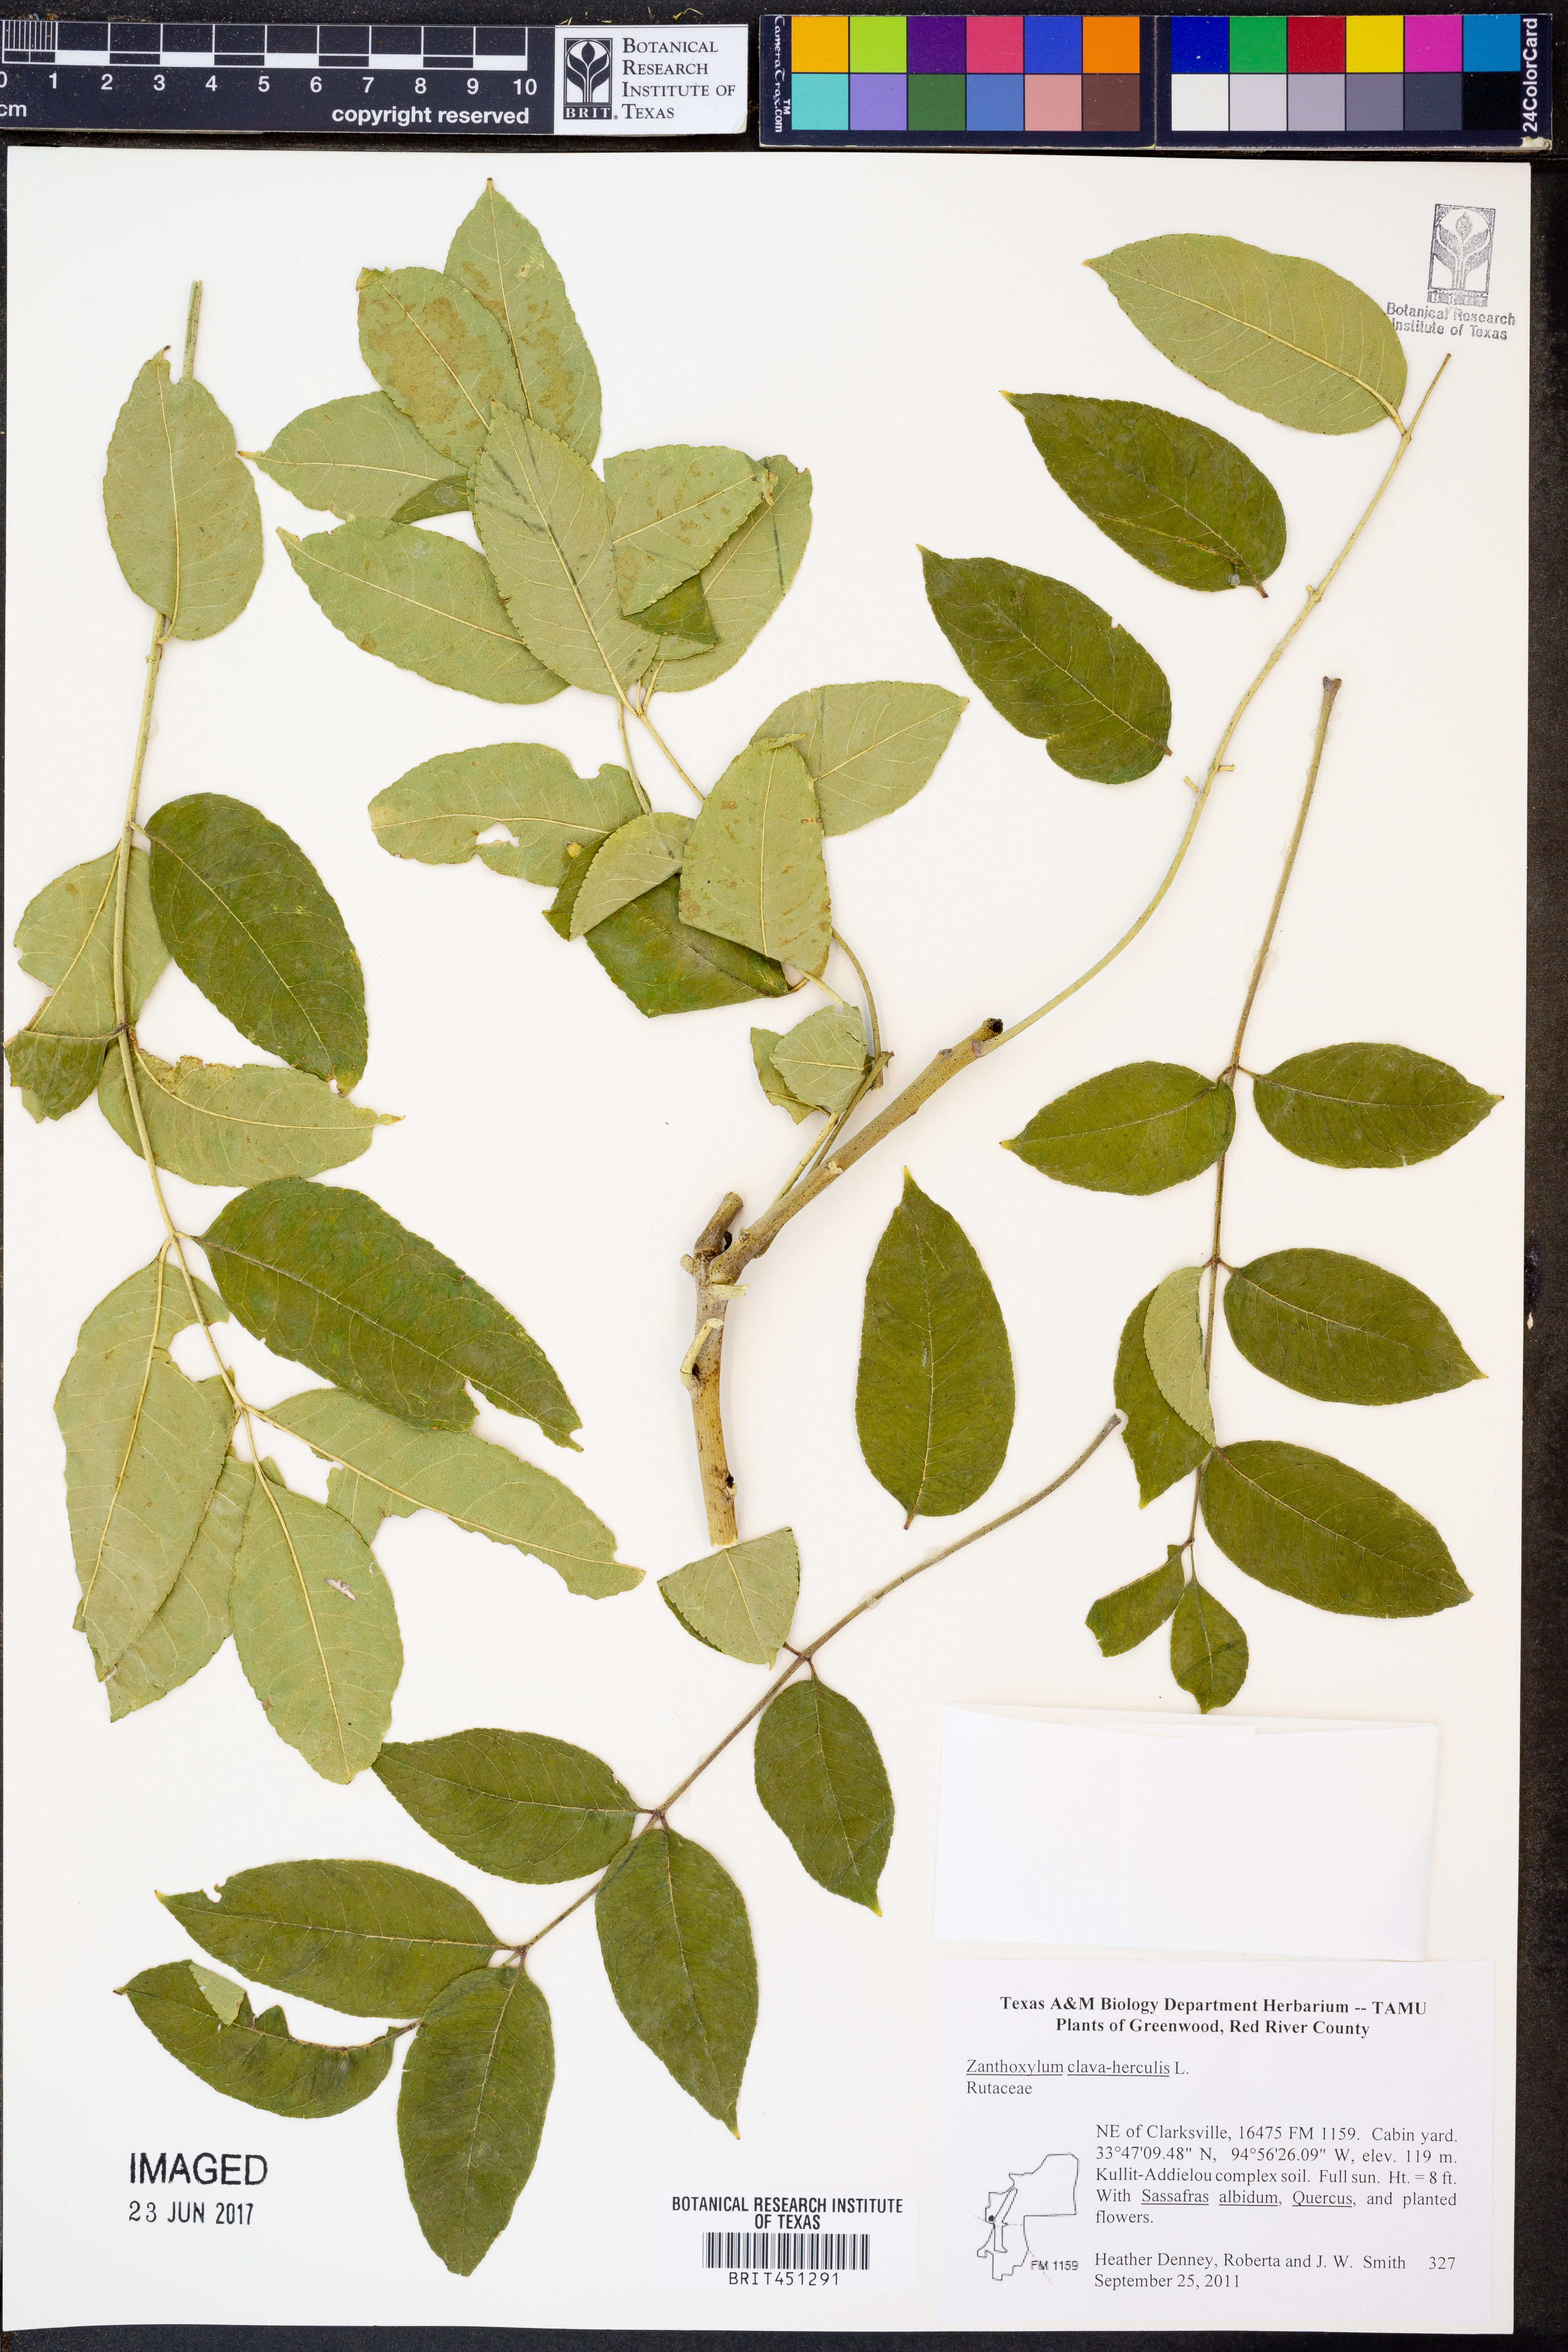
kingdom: Plantae
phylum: Tracheophyta
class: Magnoliopsida
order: Sapindales
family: Rutaceae
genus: Zanthoxylum
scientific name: Zanthoxylum avicennae
